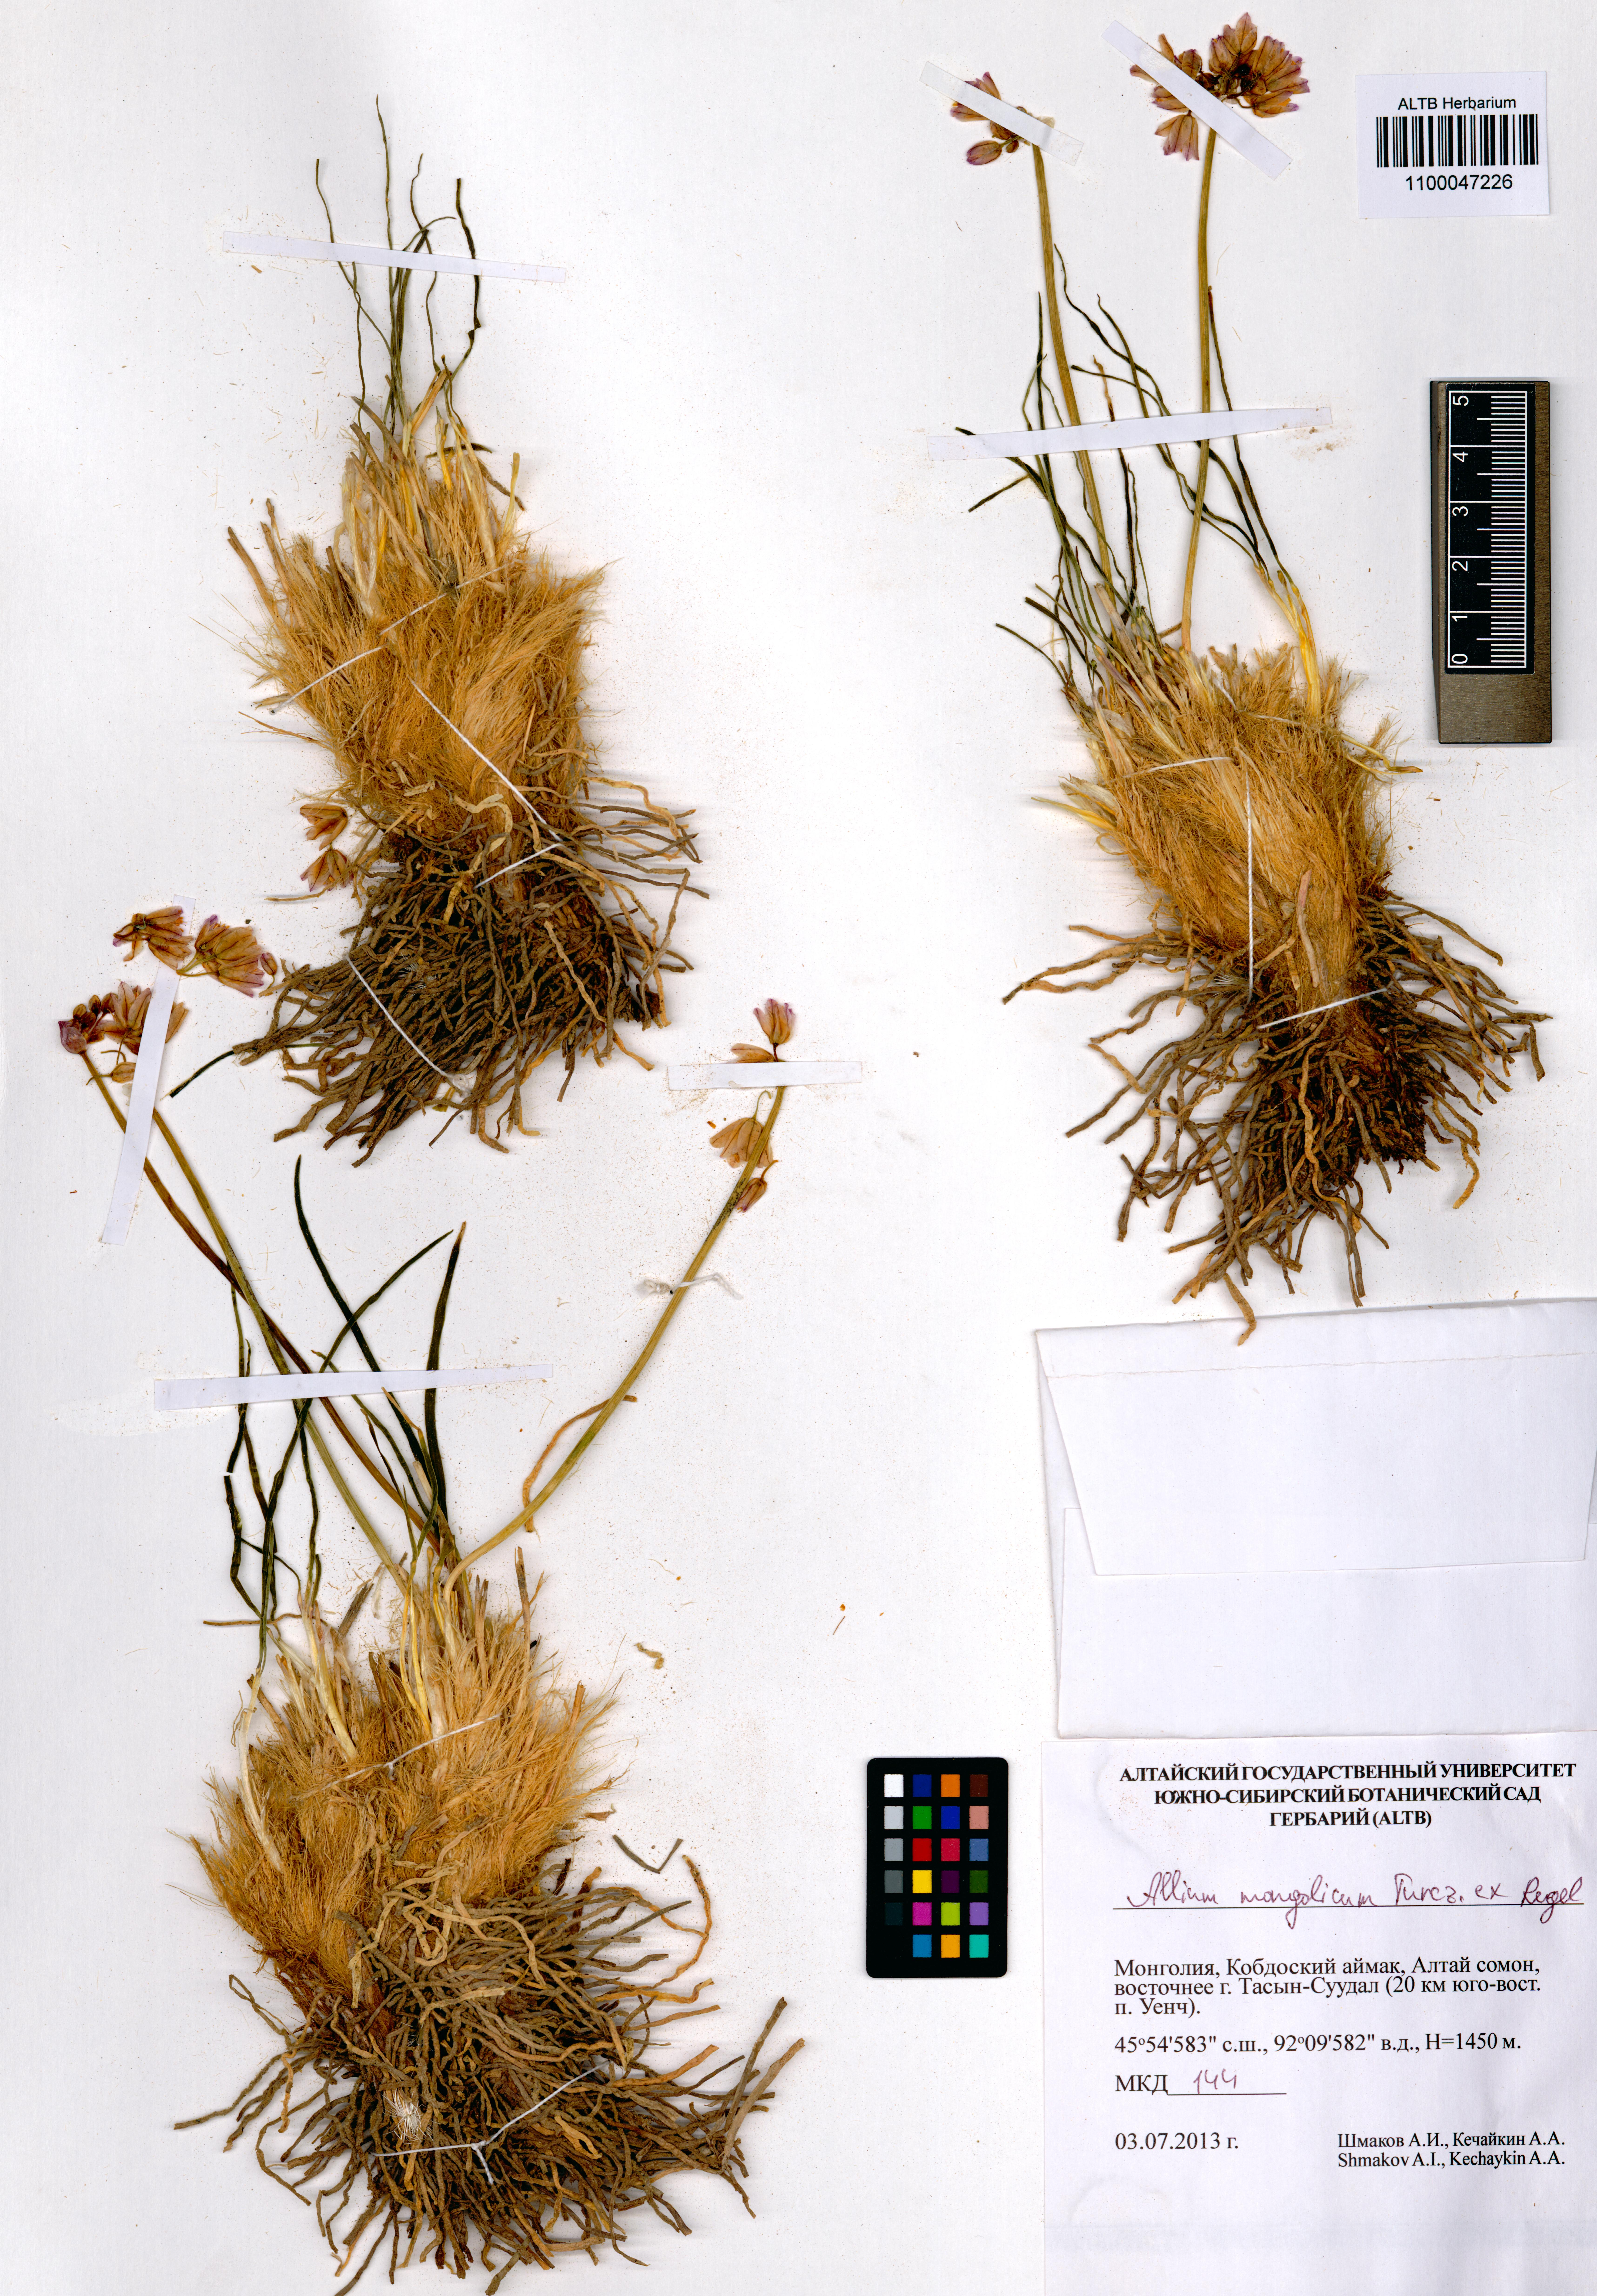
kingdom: Plantae
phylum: Tracheophyta
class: Liliopsida
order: Asparagales
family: Amaryllidaceae
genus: Allium
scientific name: Allium mongolicum
